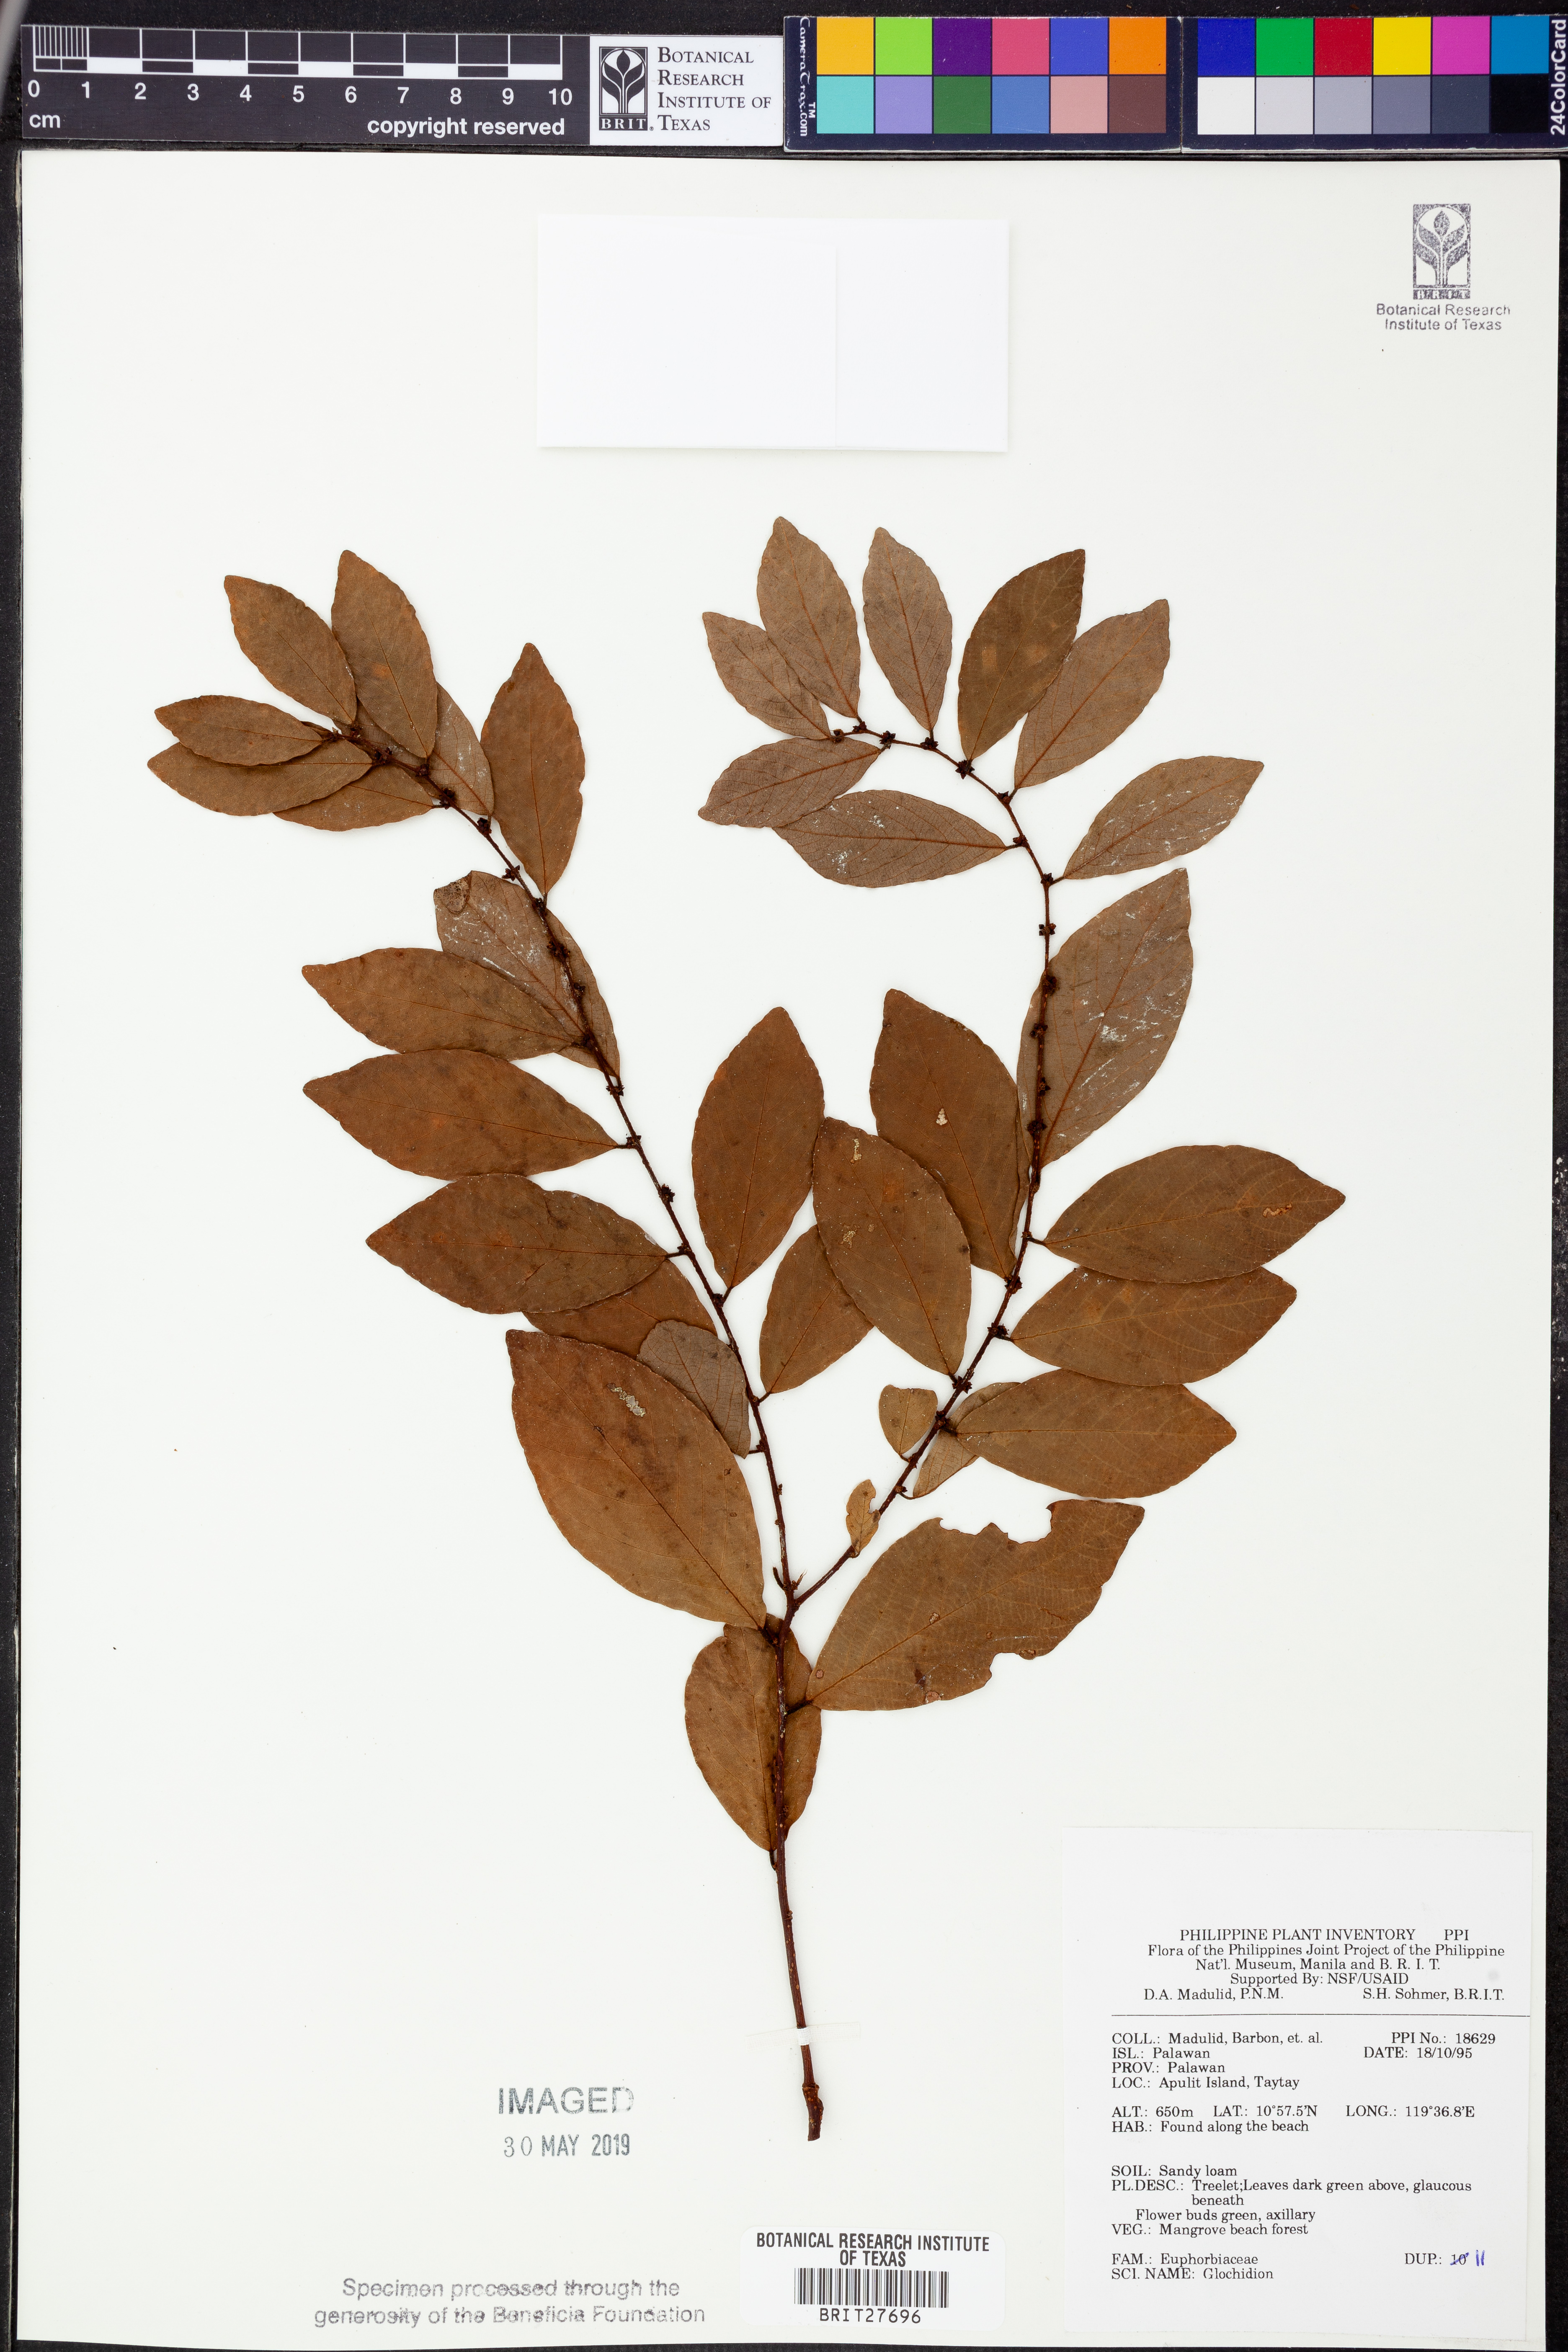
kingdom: Plantae
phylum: Tracheophyta
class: Magnoliopsida
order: Malpighiales
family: Phyllanthaceae
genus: Glochidion
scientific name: Glochidion
